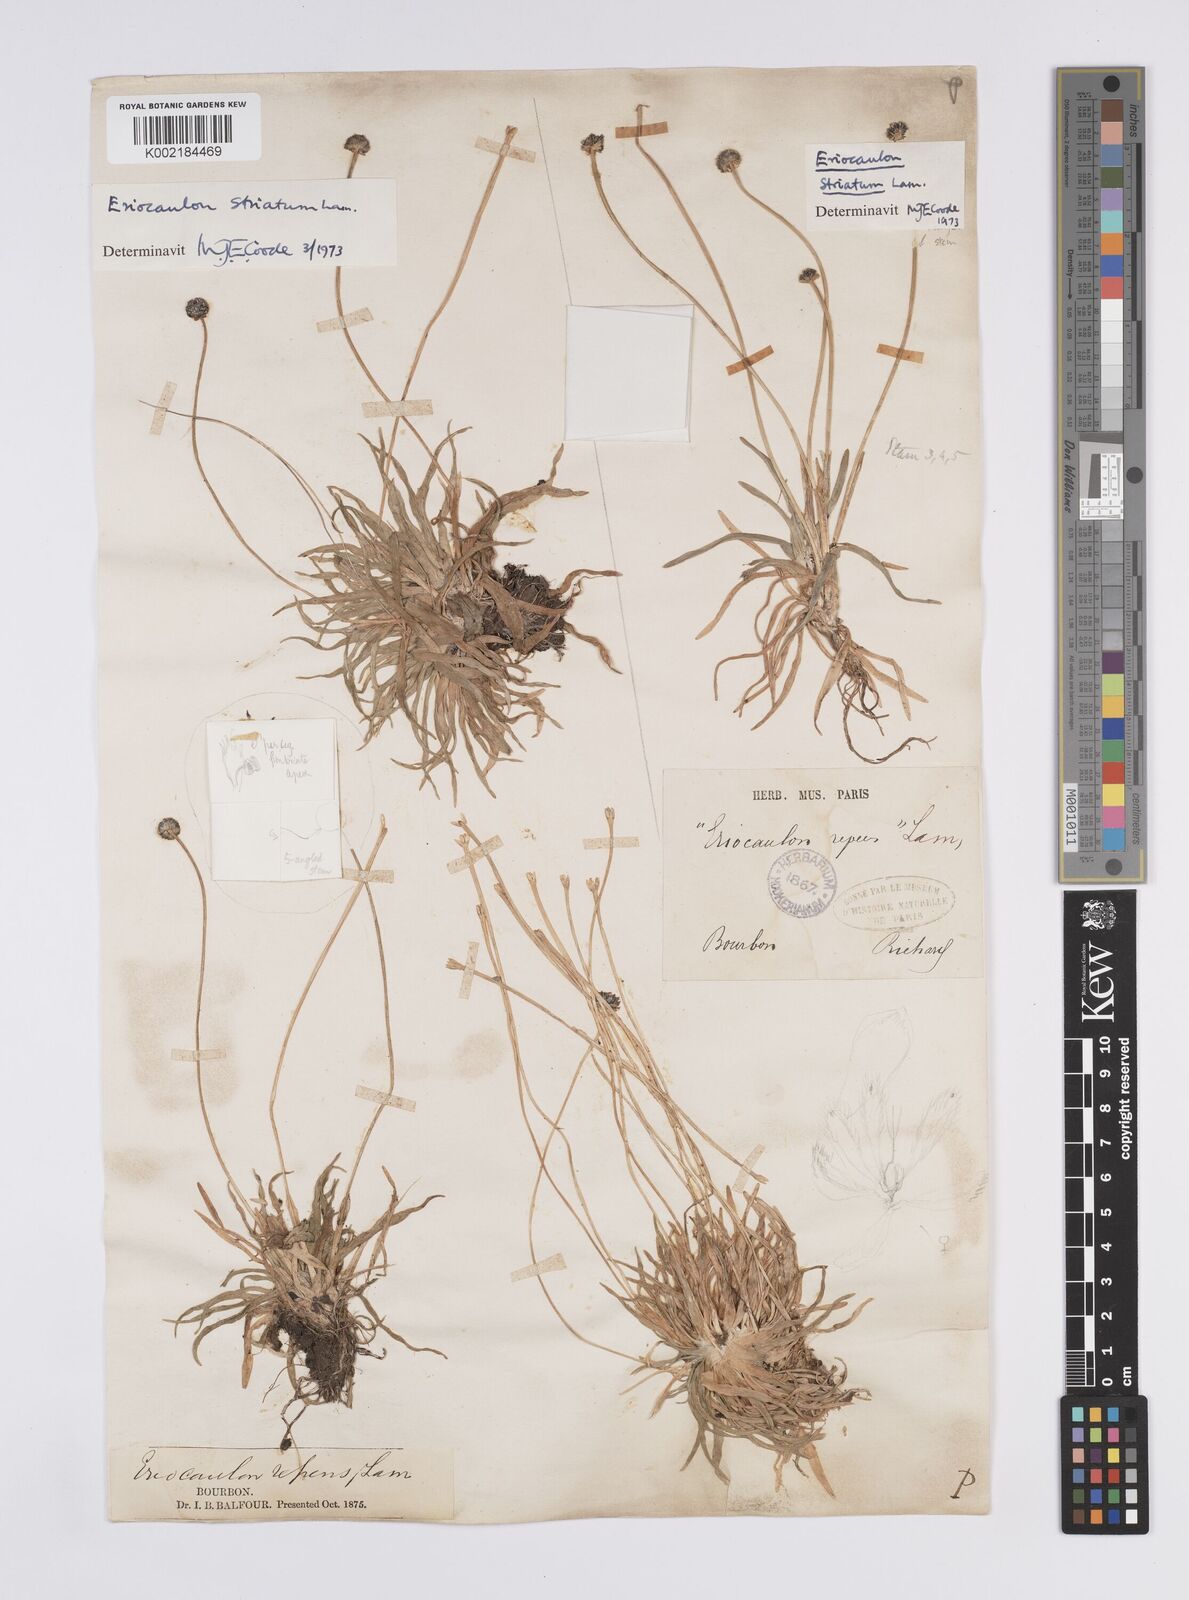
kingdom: Plantae
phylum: Tracheophyta
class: Liliopsida
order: Poales
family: Eriocaulaceae
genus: Eriocaulon
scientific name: Eriocaulon striatum
